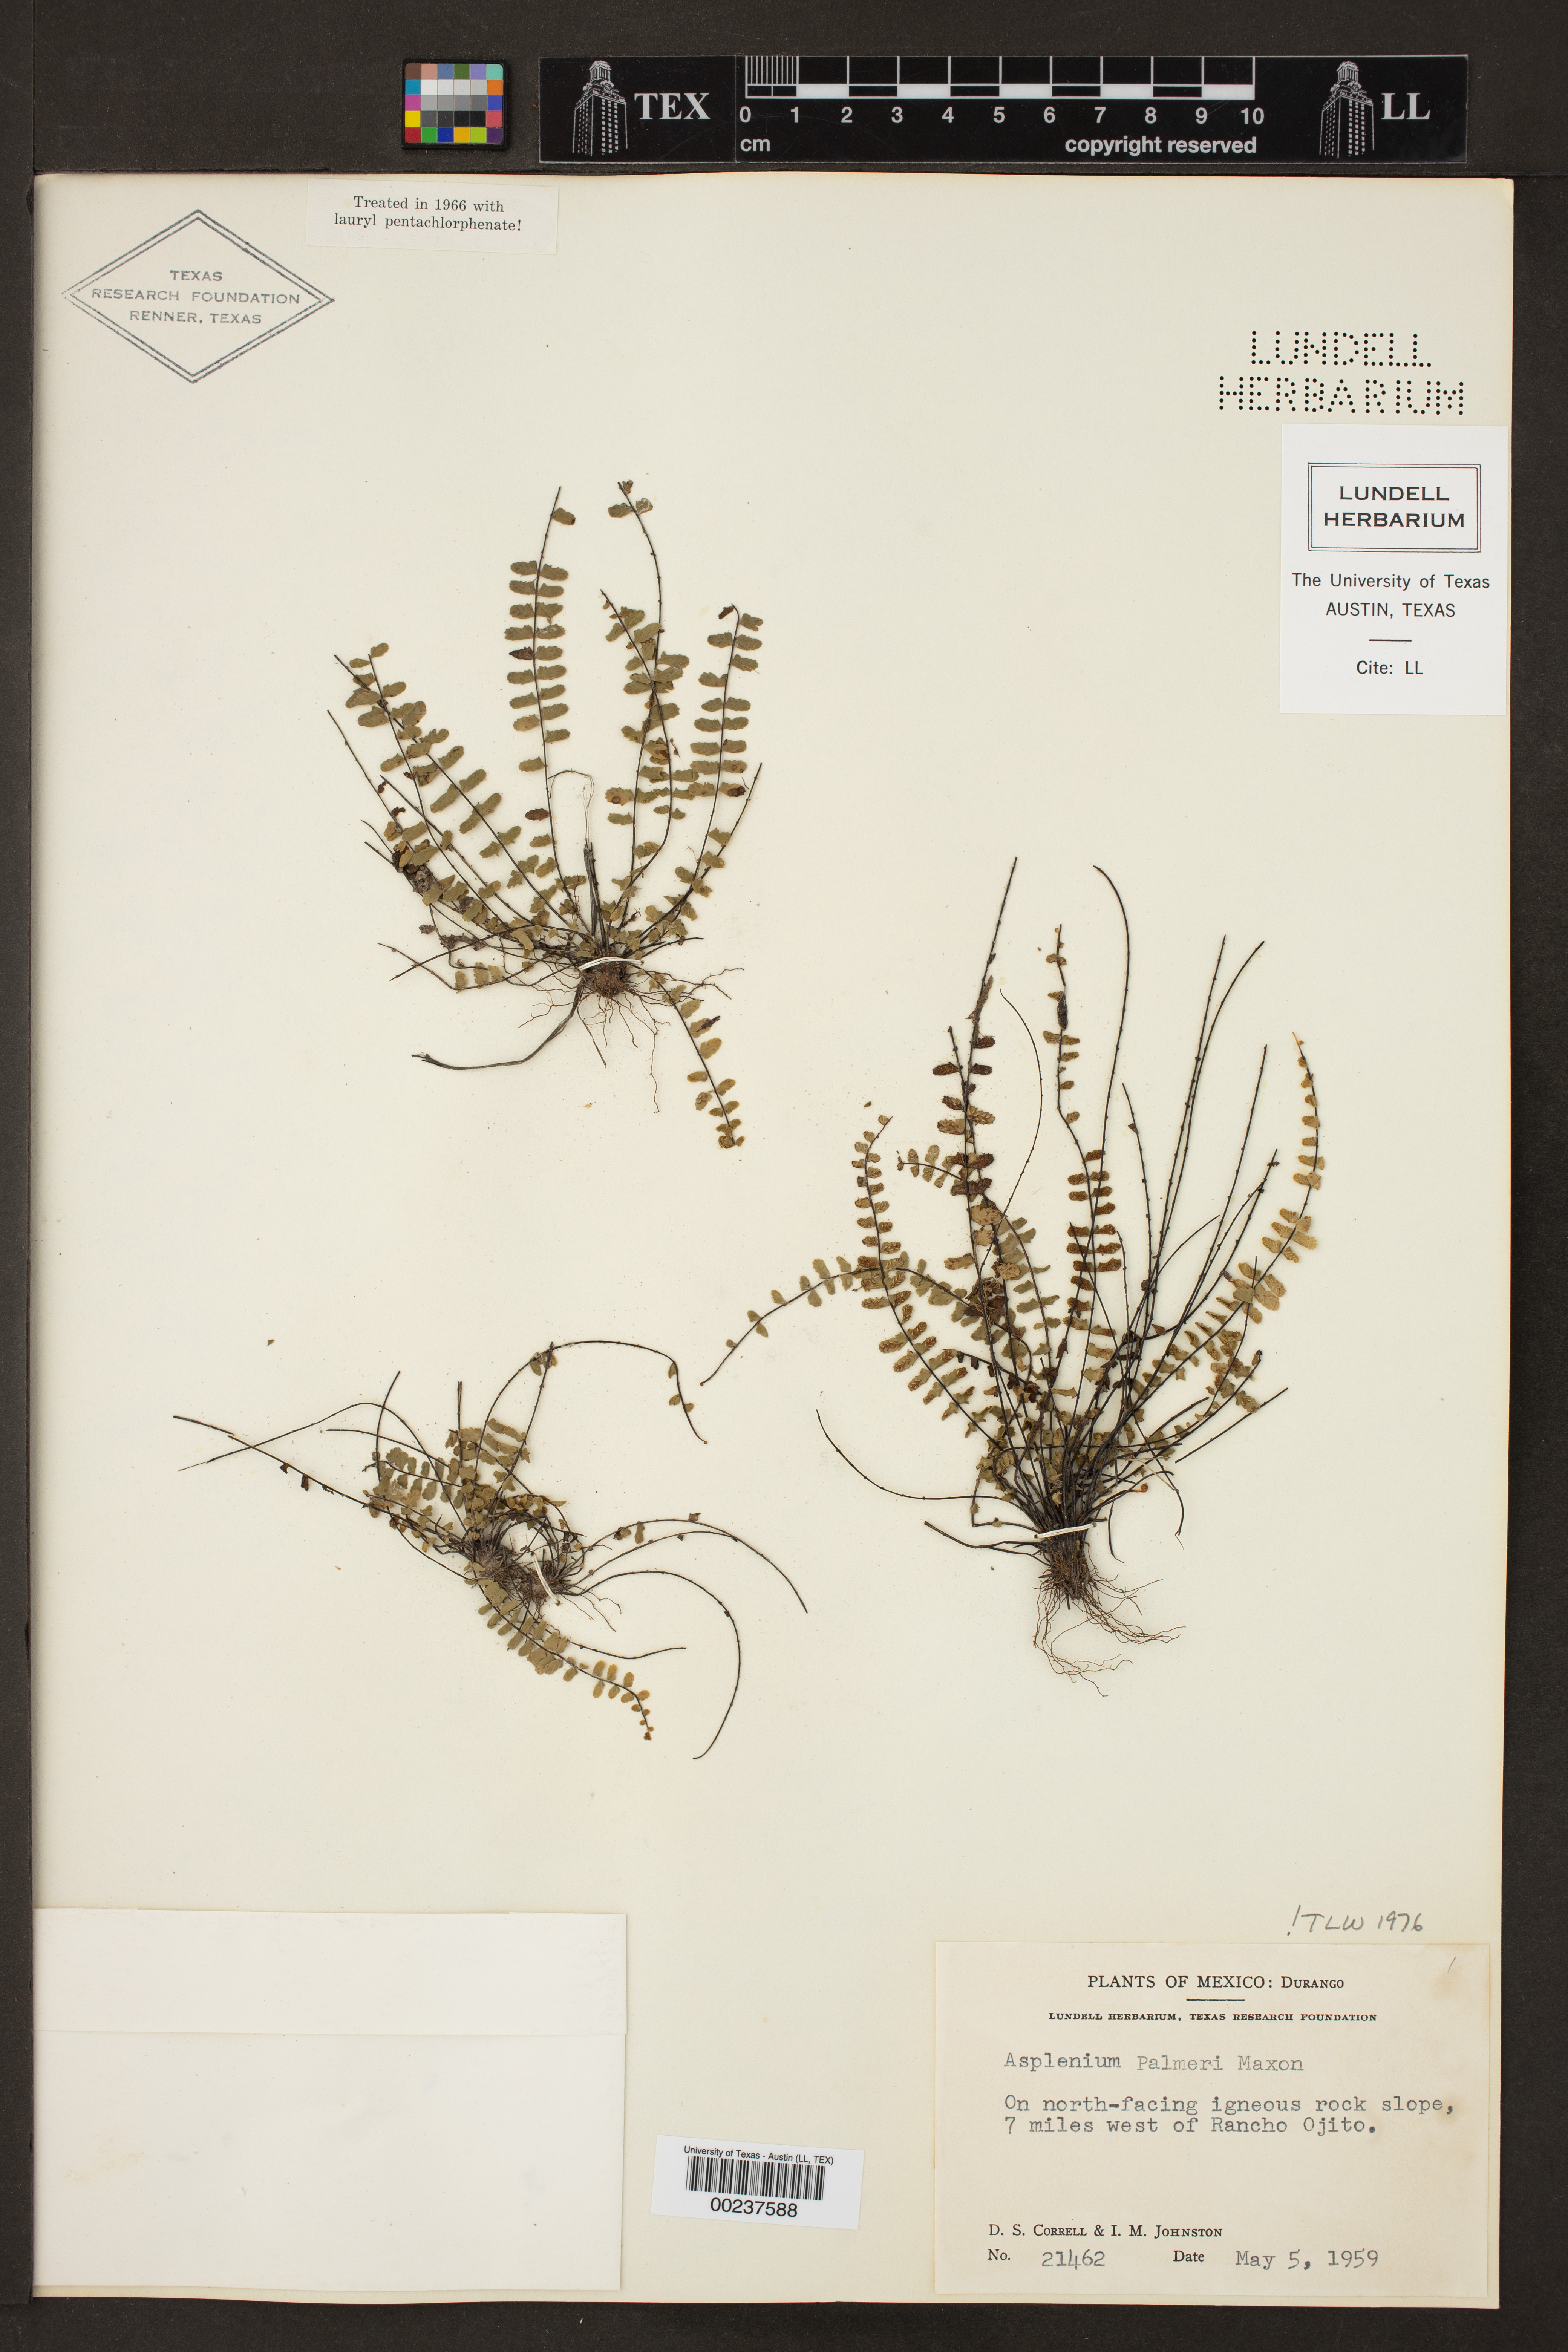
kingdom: Plantae
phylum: Tracheophyta
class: Polypodiopsida
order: Polypodiales
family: Aspleniaceae
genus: Asplenium
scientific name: Asplenium palmeri
